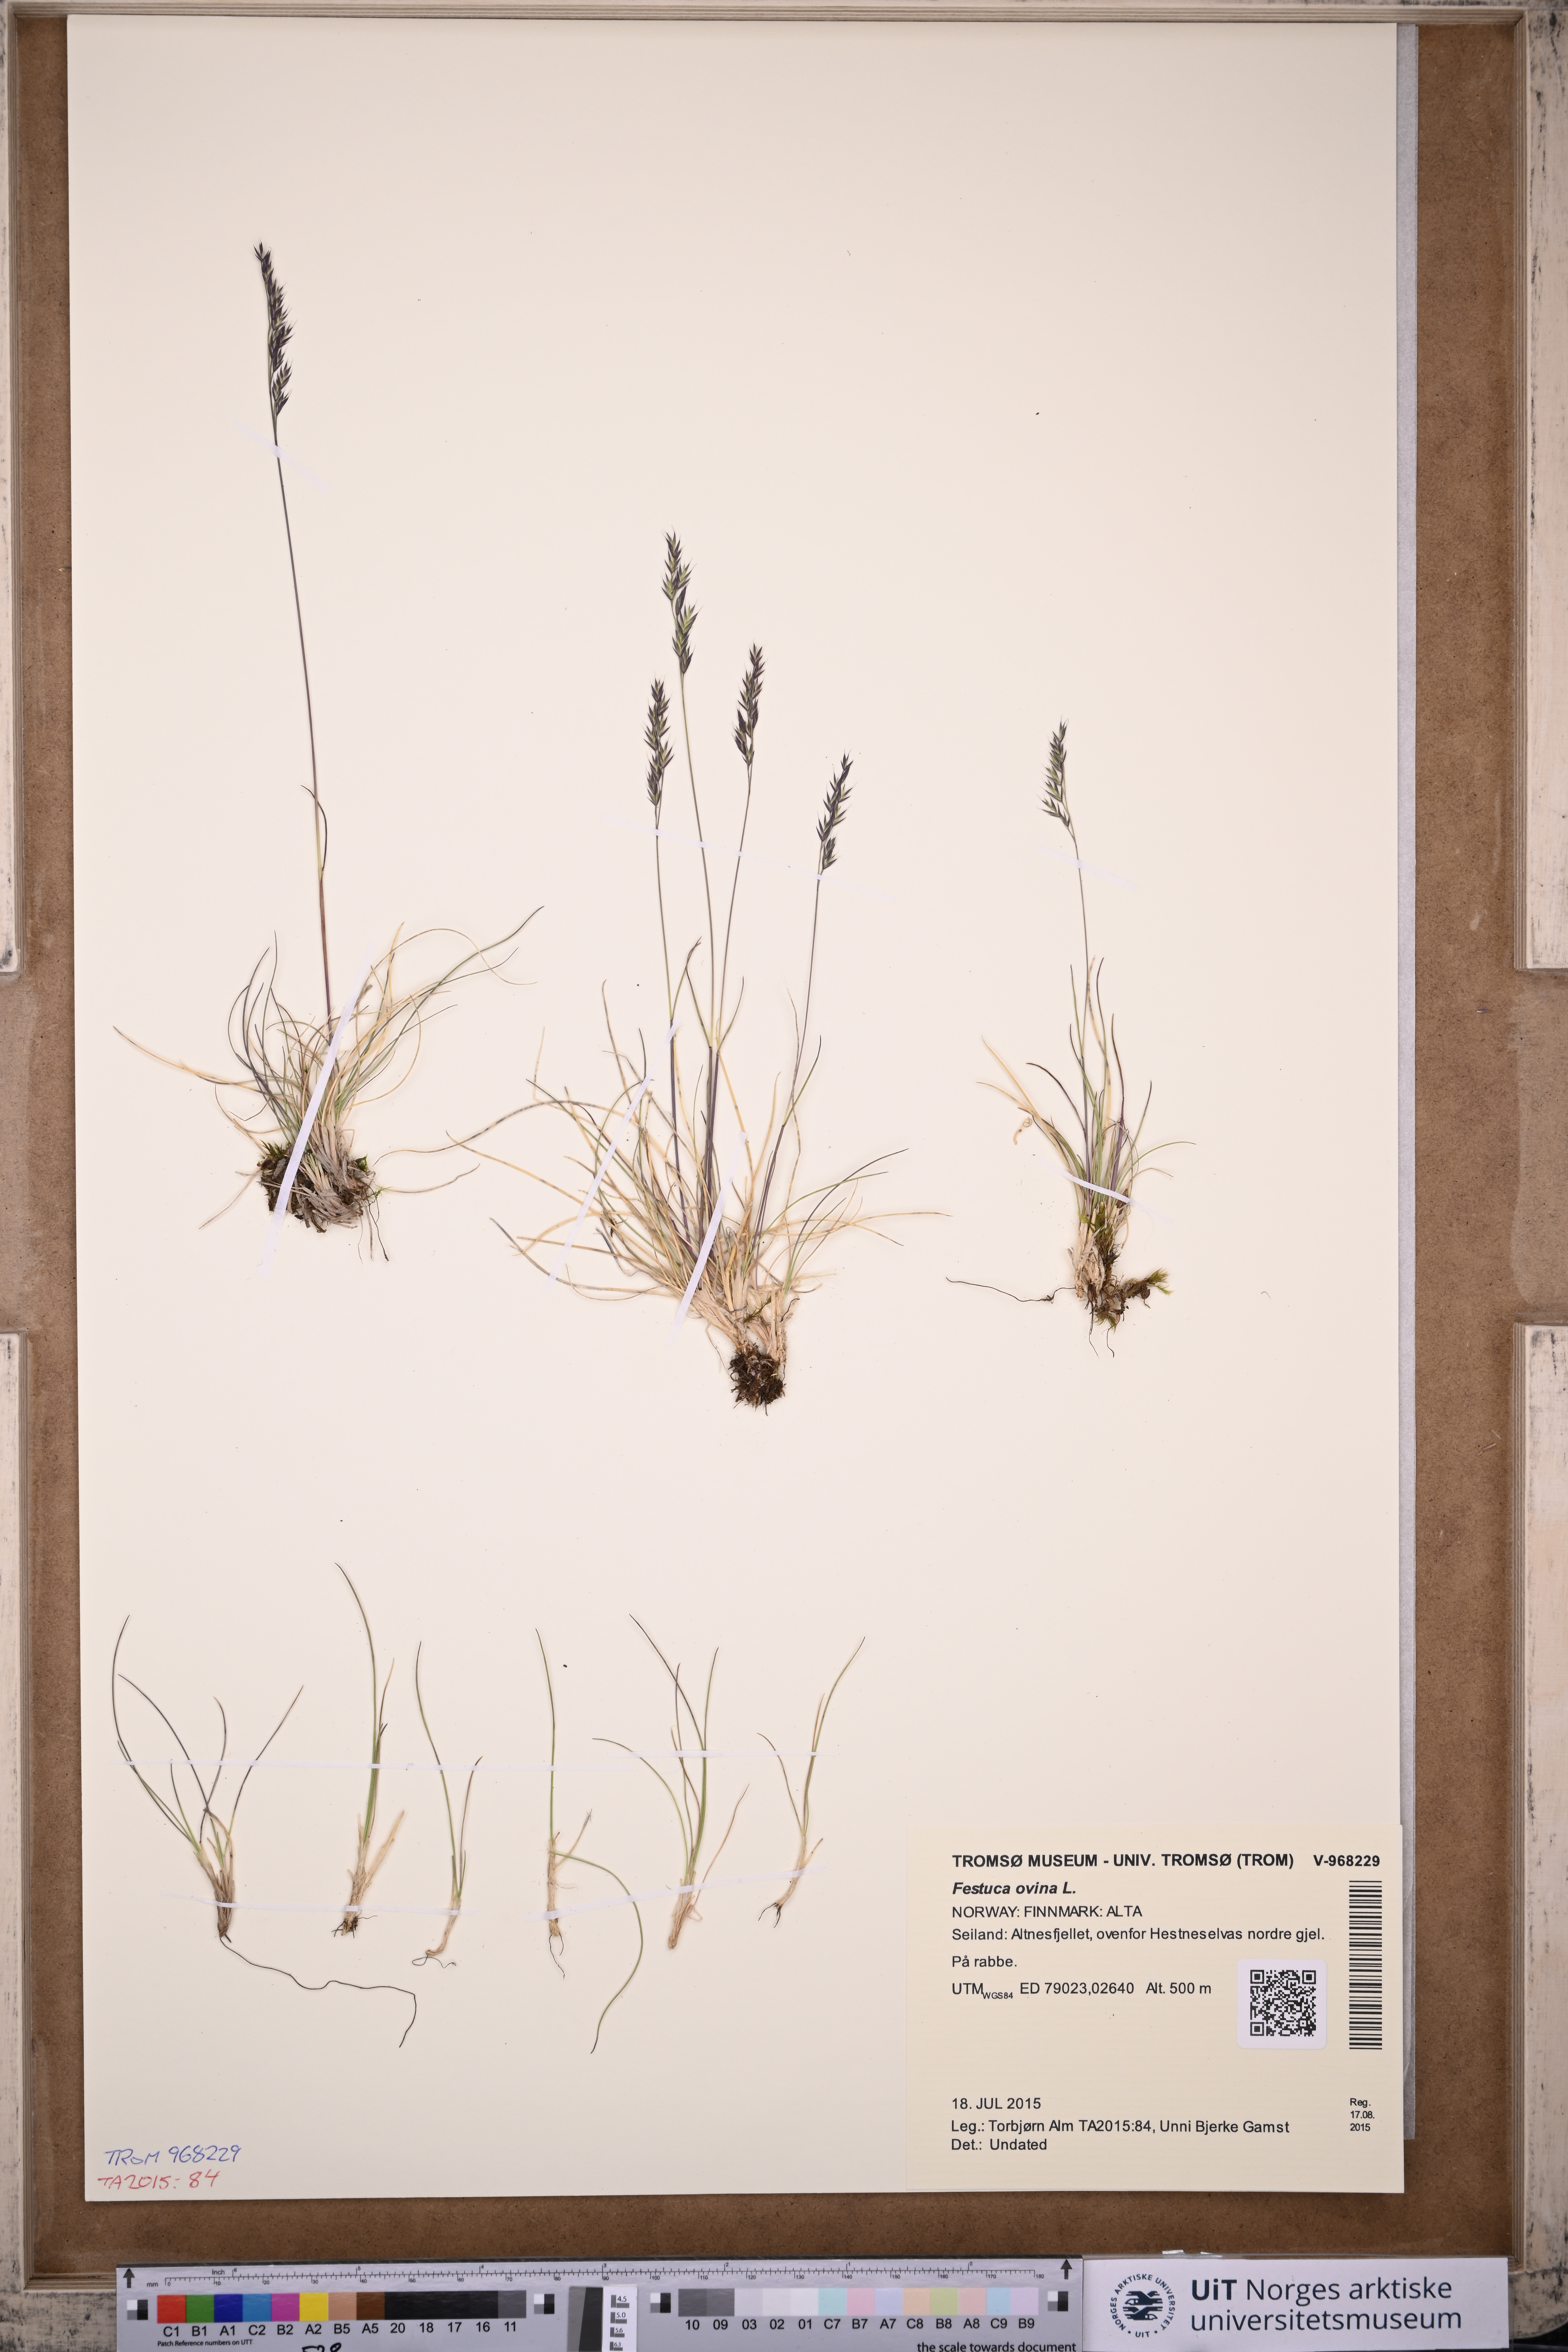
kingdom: Plantae
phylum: Tracheophyta
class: Liliopsida
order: Poales
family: Poaceae
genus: Festuca
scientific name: Festuca ovina
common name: Sheep fescue
